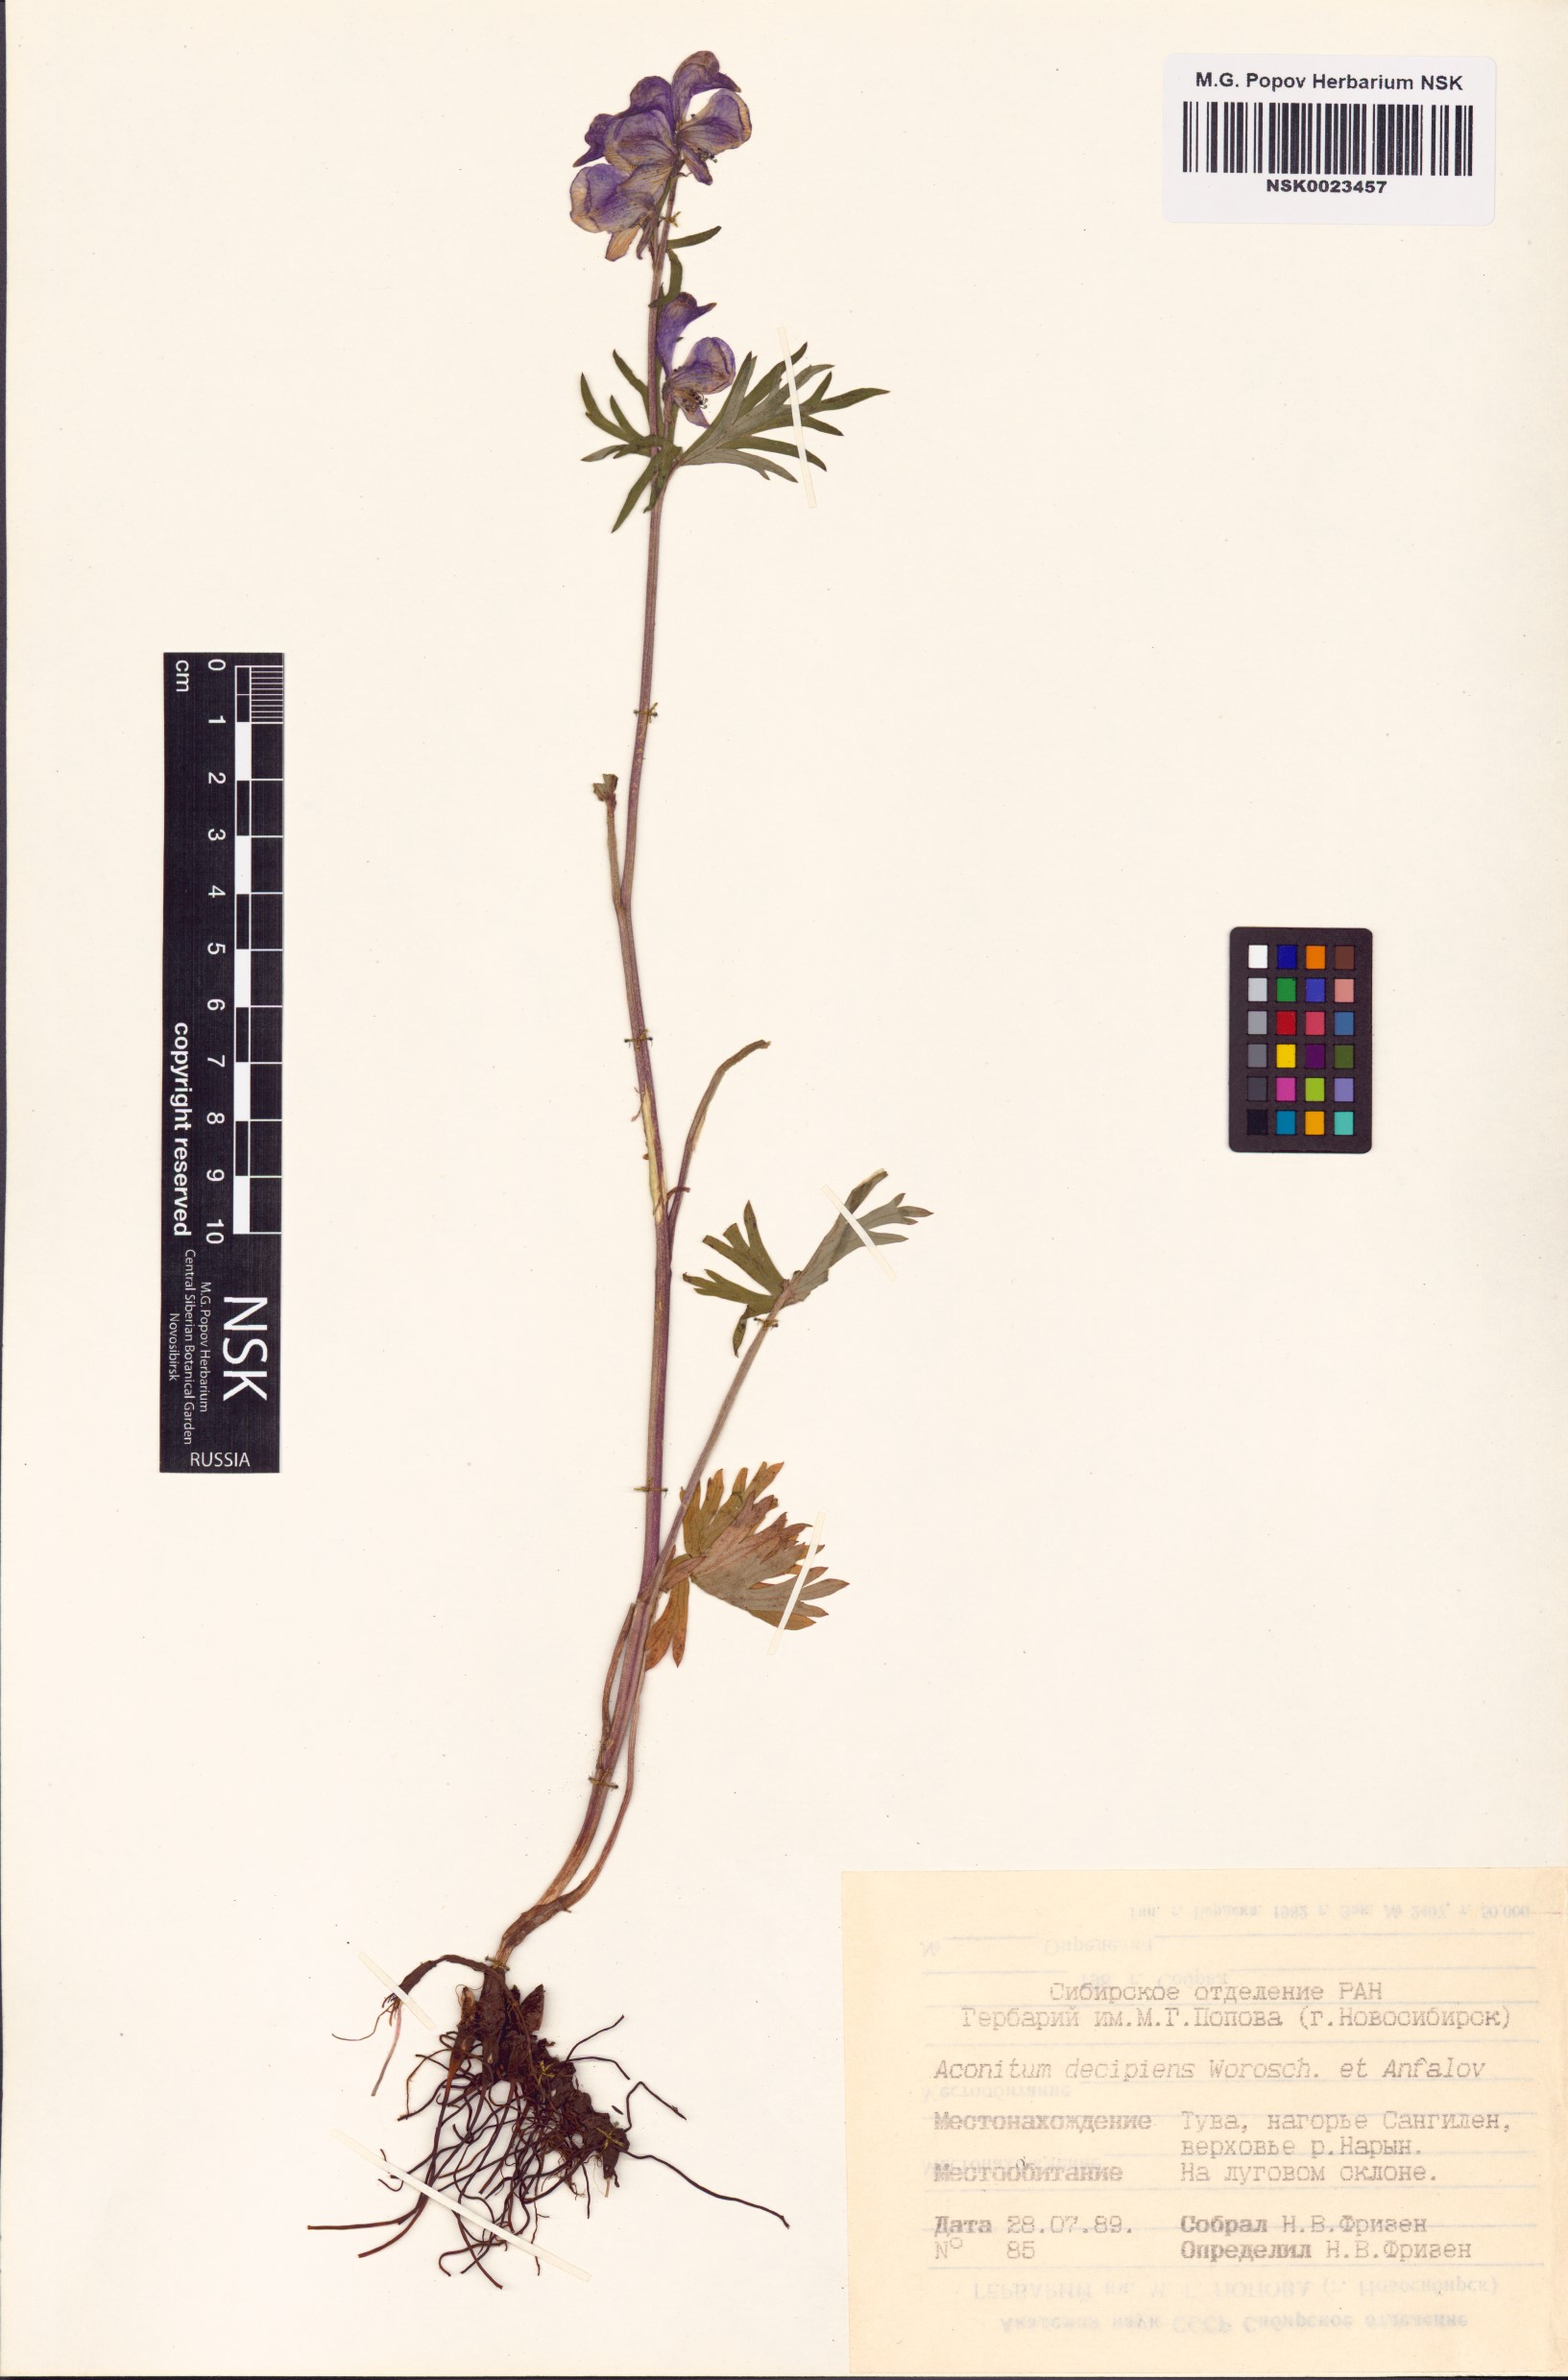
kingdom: Plantae
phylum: Tracheophyta
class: Magnoliopsida
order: Ranunculales
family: Ranunculaceae
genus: Aconitum
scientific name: Aconitum decipiens
